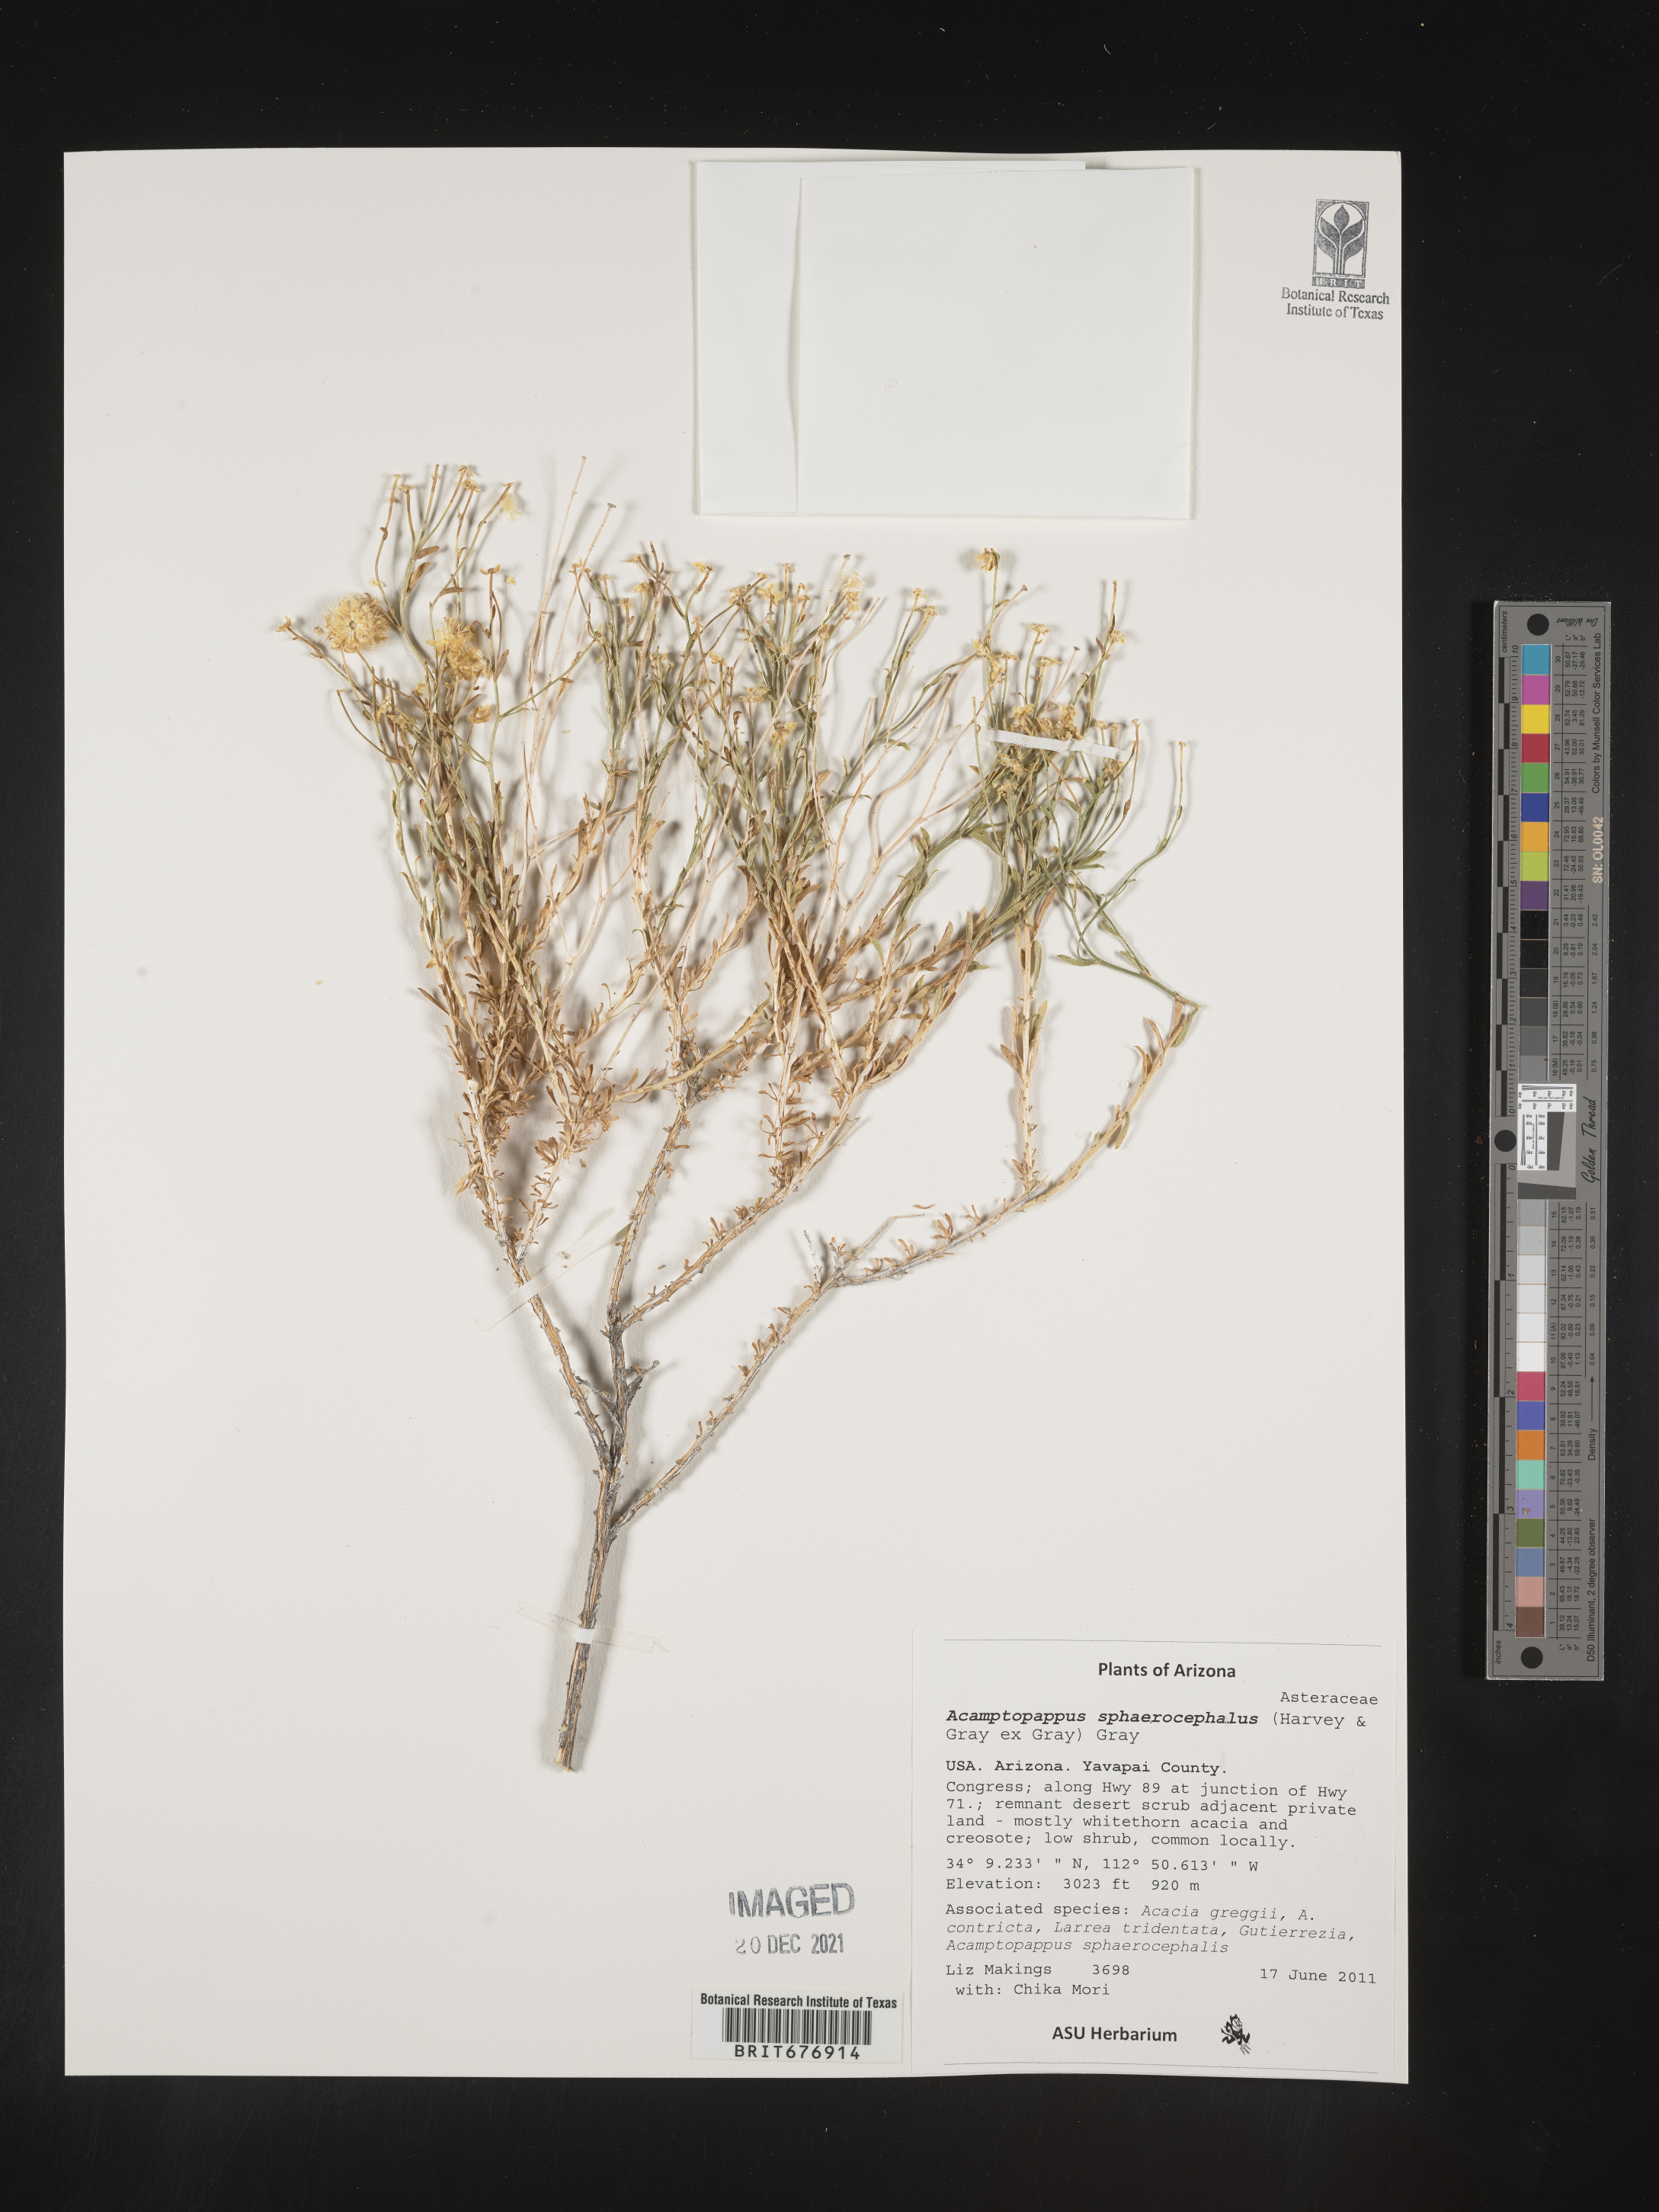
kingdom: Plantae
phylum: Tracheophyta
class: Magnoliopsida
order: Asterales
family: Asteraceae
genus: Acamptopappus
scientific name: Acamptopappus
